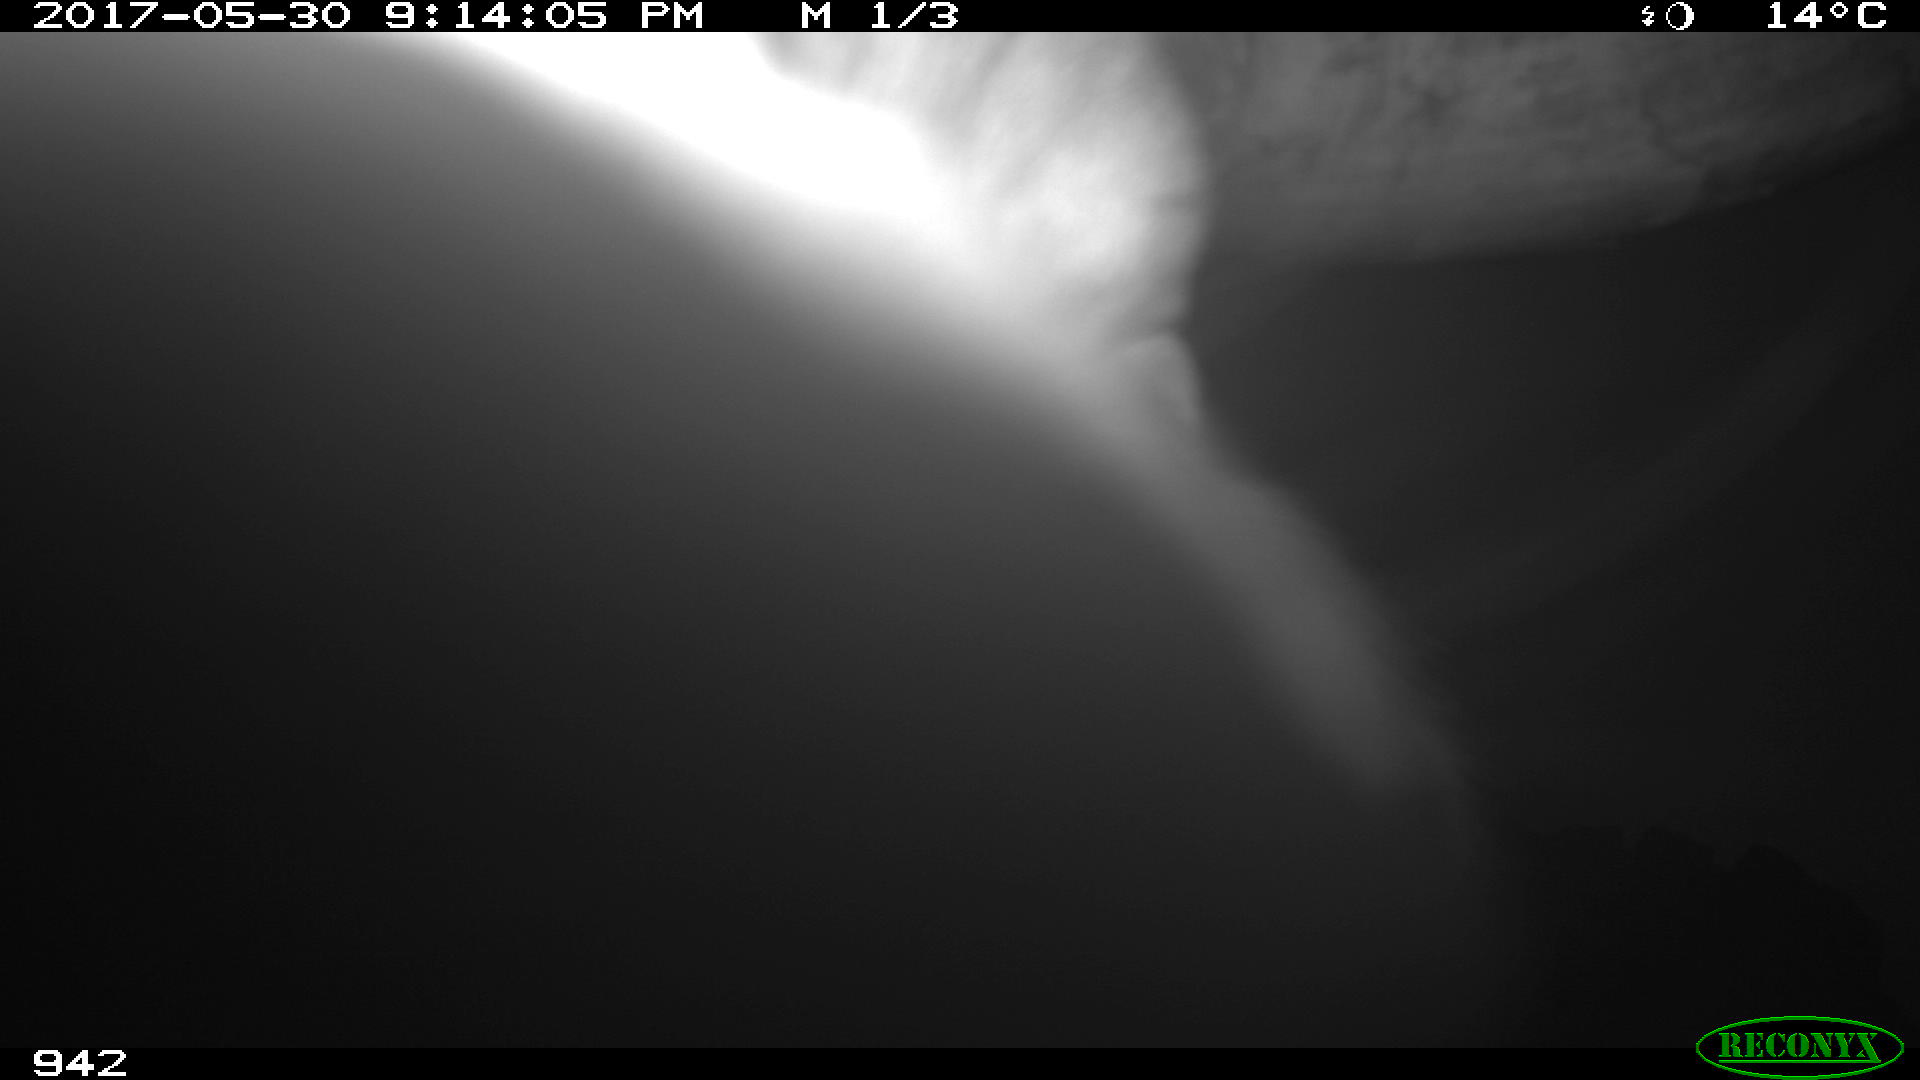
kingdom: Animalia
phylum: Chordata
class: Mammalia
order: Artiodactyla
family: Bovidae
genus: Bos
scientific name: Bos taurus
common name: Domesticated cattle
